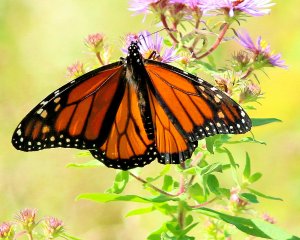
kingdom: Animalia
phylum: Arthropoda
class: Insecta
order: Lepidoptera
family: Nymphalidae
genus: Danaus
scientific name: Danaus plexippus
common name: Monarch
